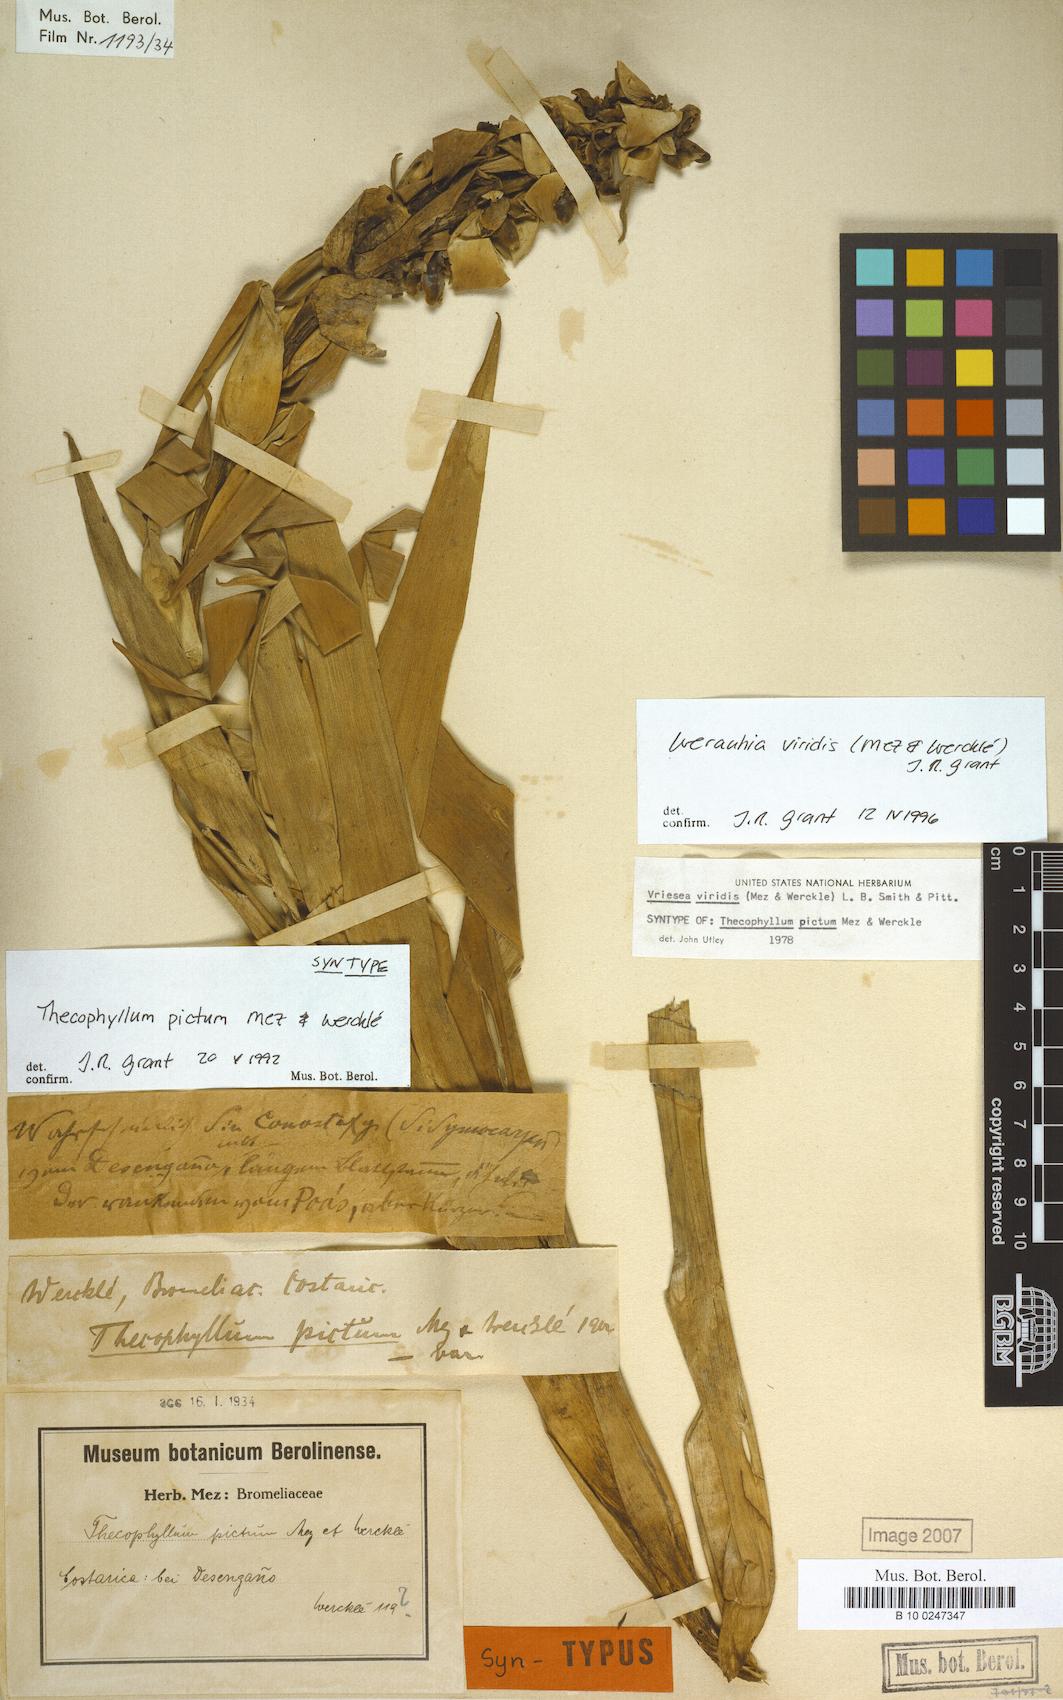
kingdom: Plantae
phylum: Tracheophyta
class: Liliopsida
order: Poales
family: Bromeliaceae
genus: Werauhia
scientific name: Werauhia viridis
